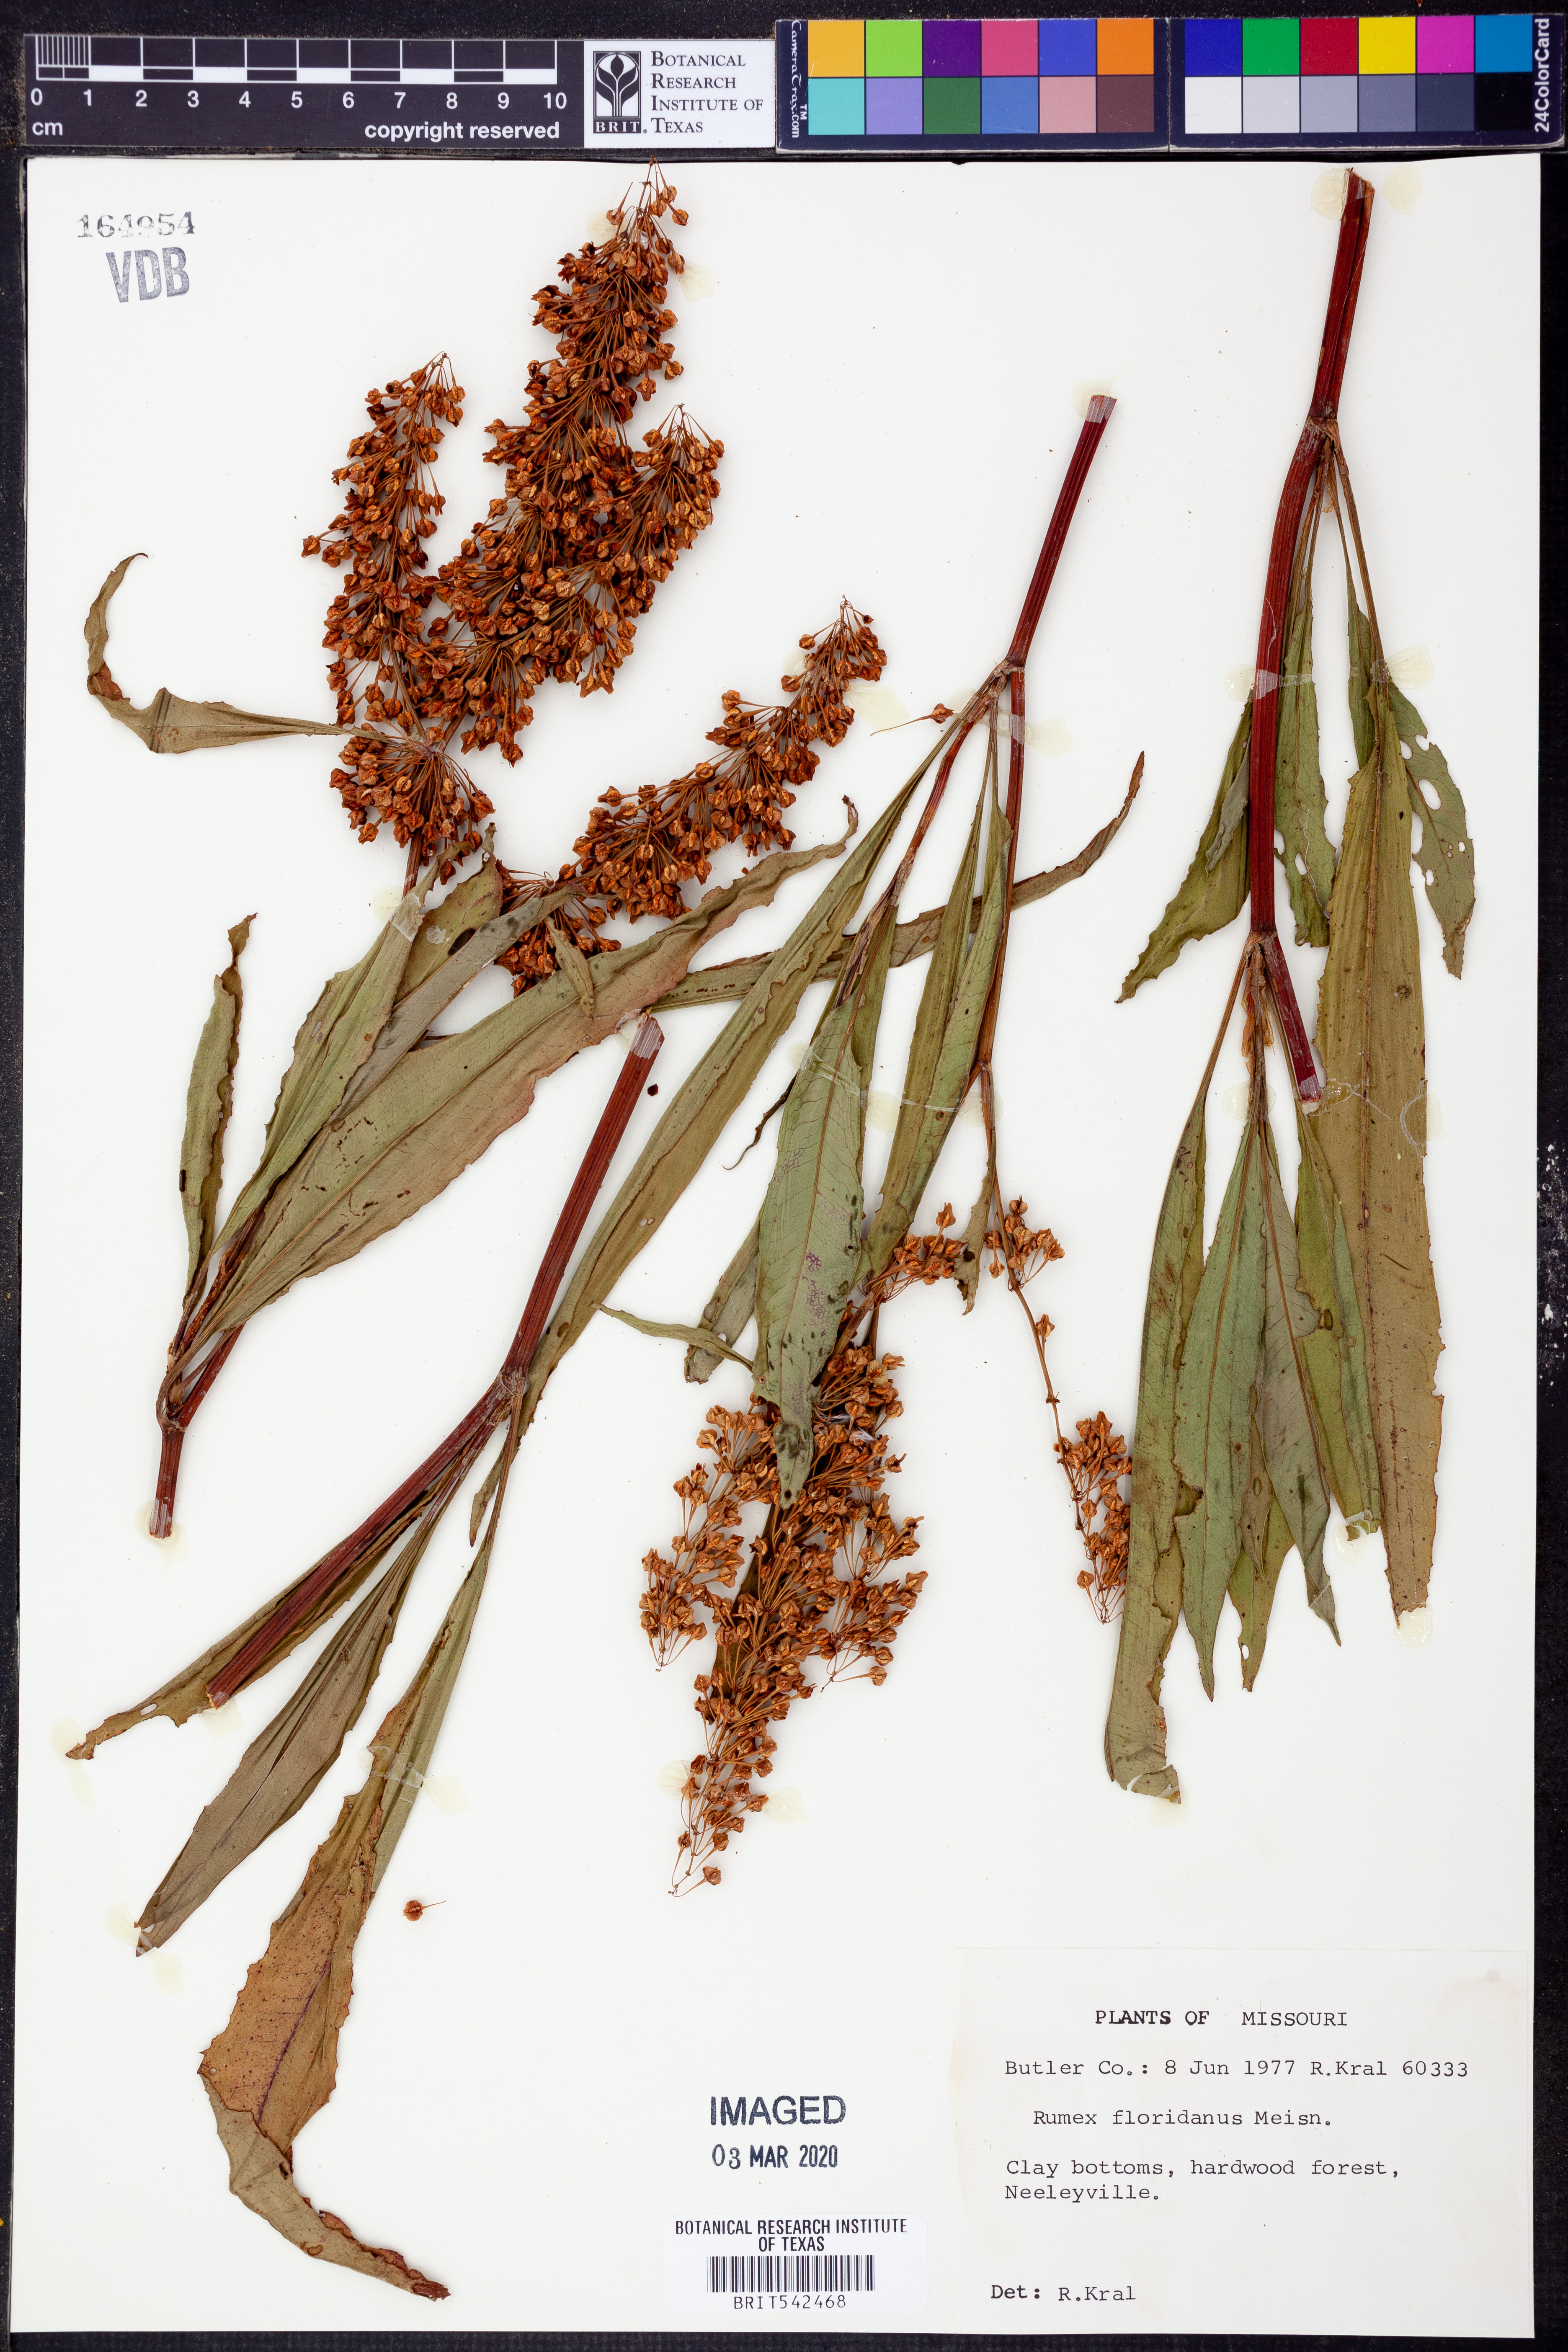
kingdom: Plantae
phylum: Tracheophyta
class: Magnoliopsida
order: Caryophyllales
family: Polygonaceae
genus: Rumex
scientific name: Rumex floridanus
